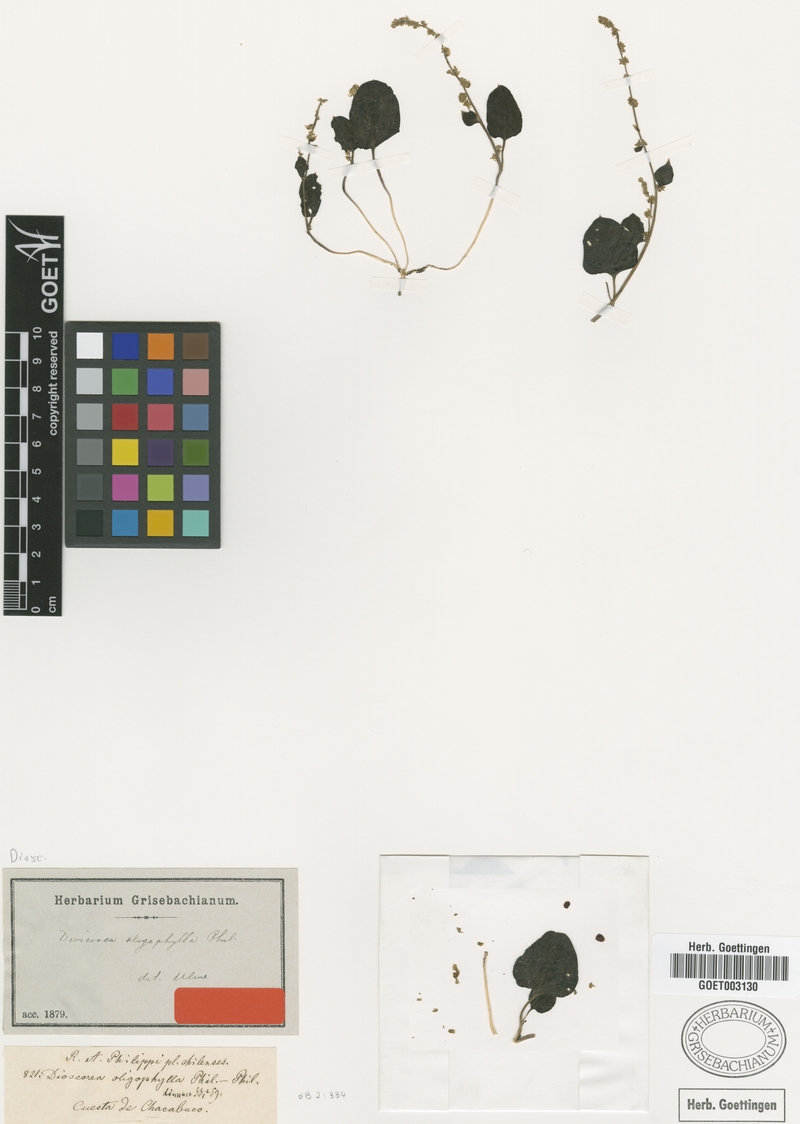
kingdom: Plantae
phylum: Tracheophyta
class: Liliopsida
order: Dioscoreales
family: Dioscoreaceae
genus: Dioscorea
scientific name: Dioscorea oligophylla
